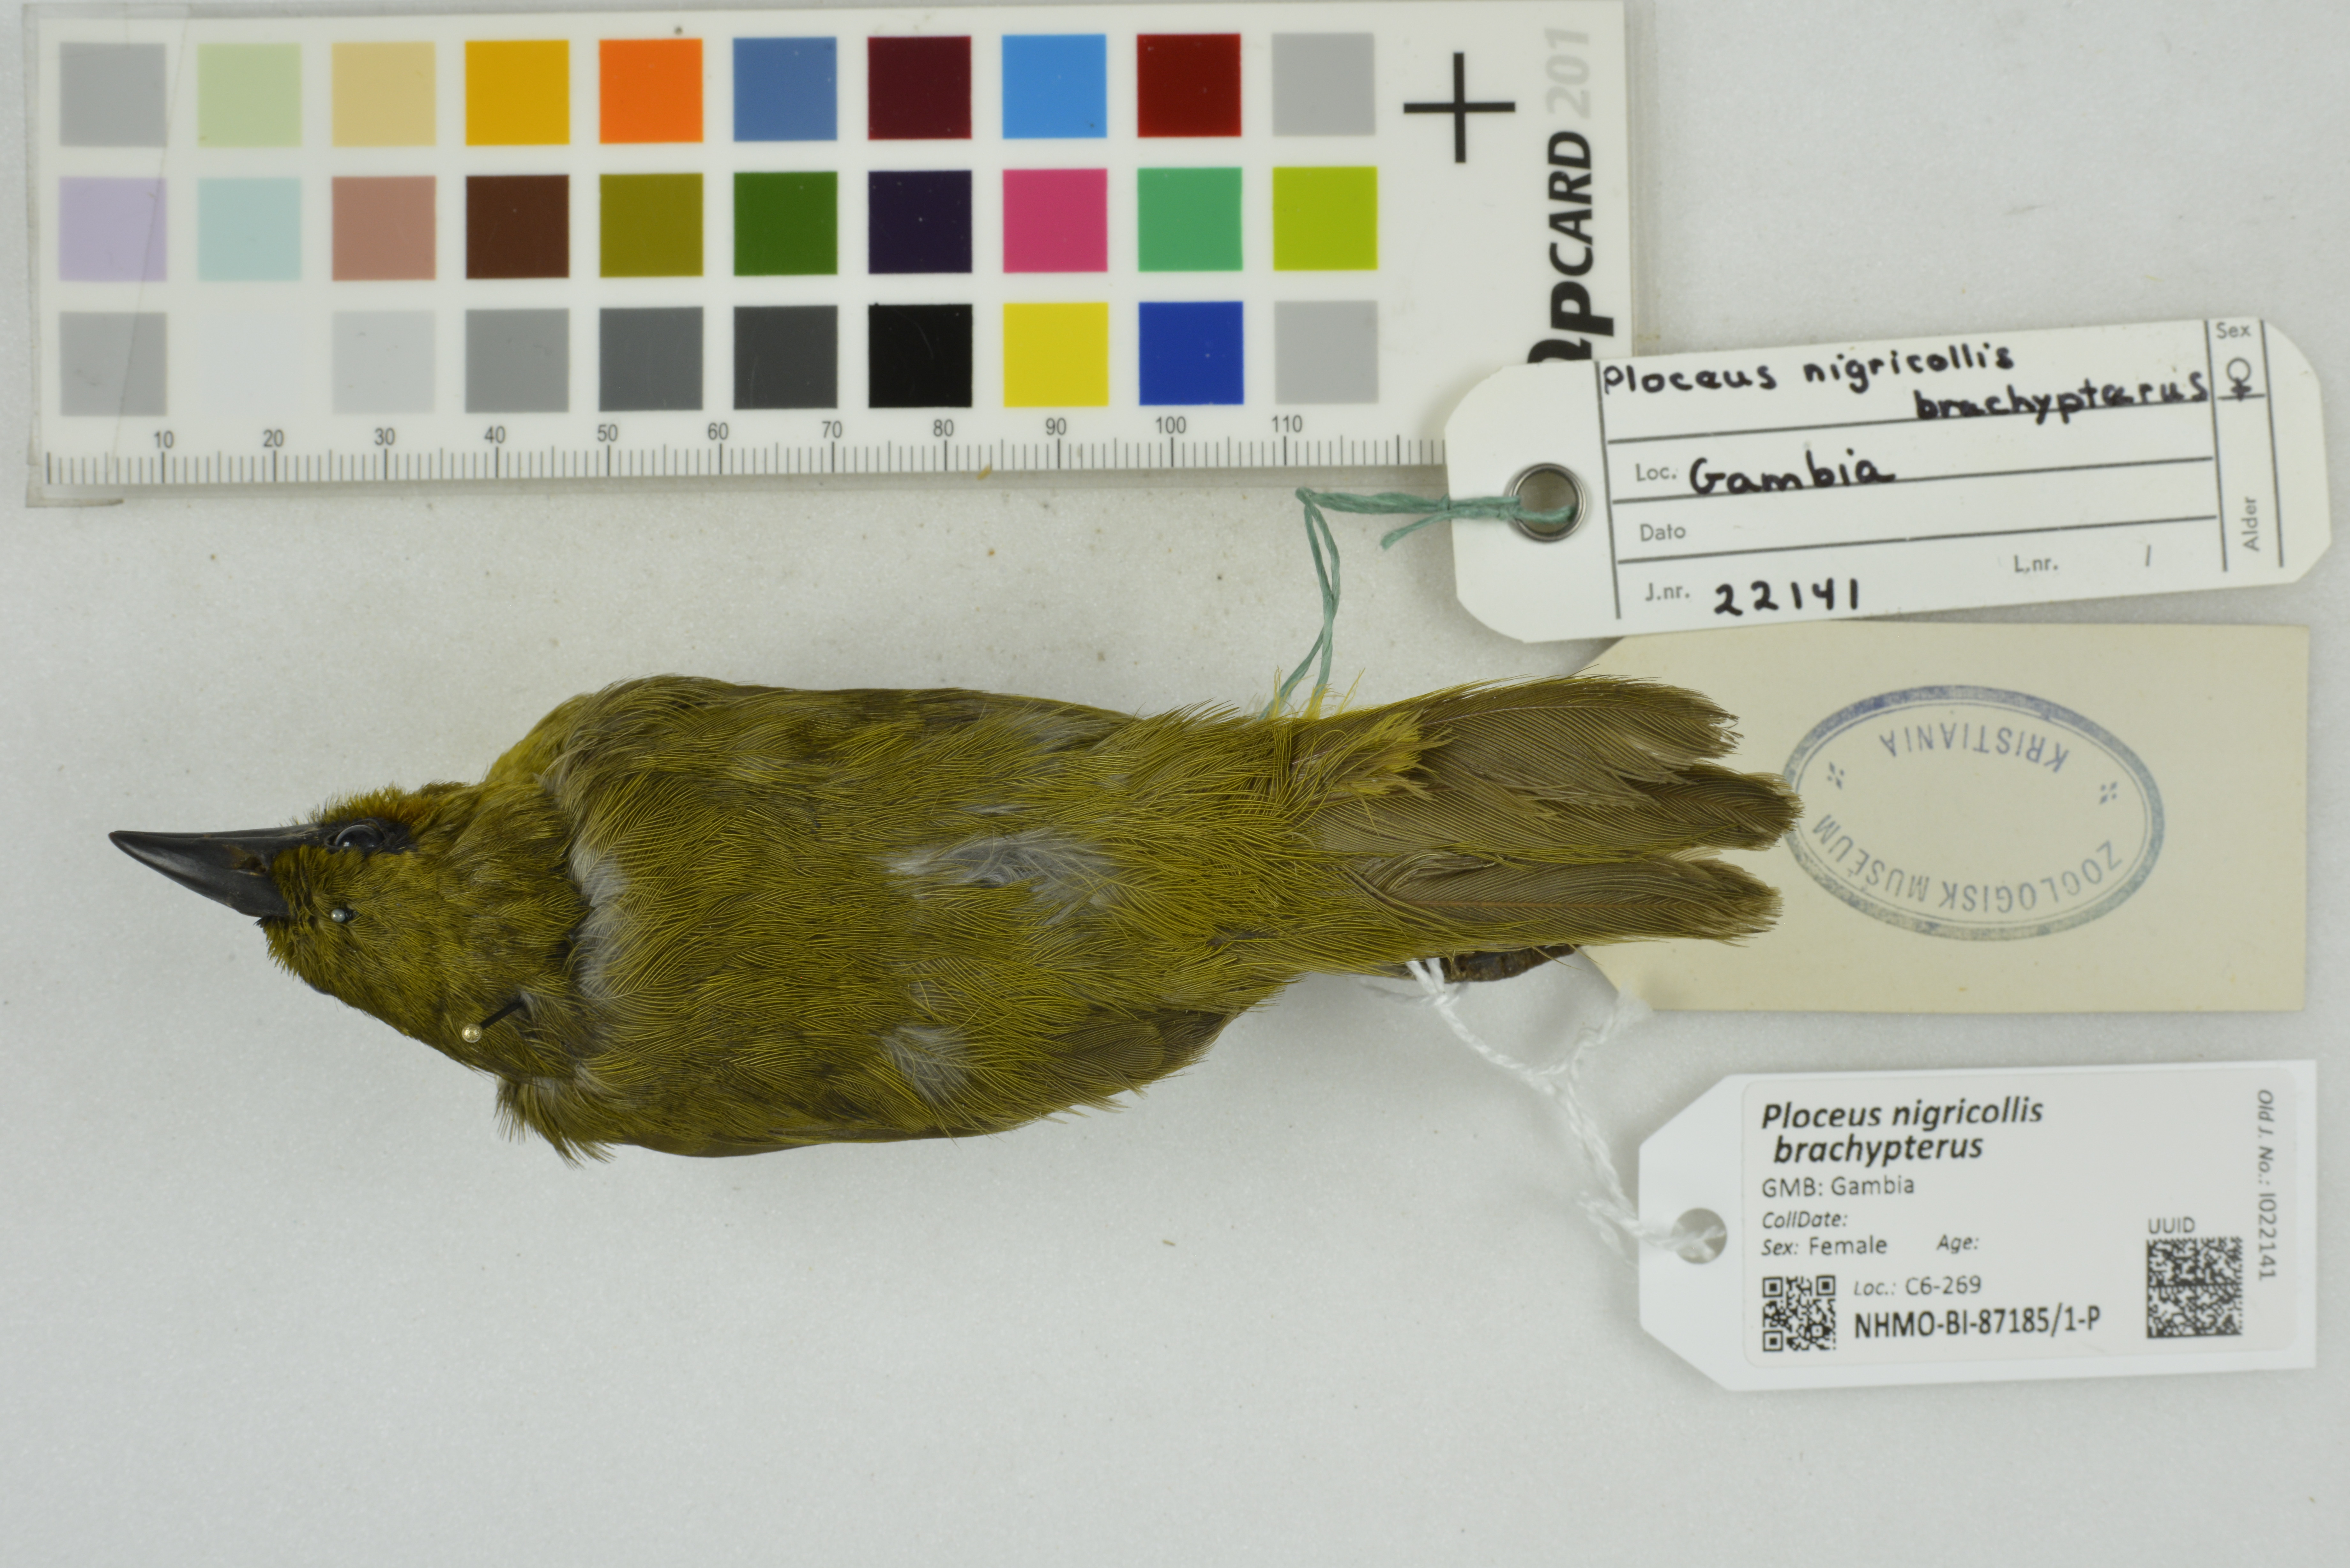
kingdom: Animalia
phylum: Chordata
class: Aves
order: Passeriformes
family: Ploceidae
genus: Ploceus
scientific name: Ploceus nigricollis
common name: Black-necked weaver
